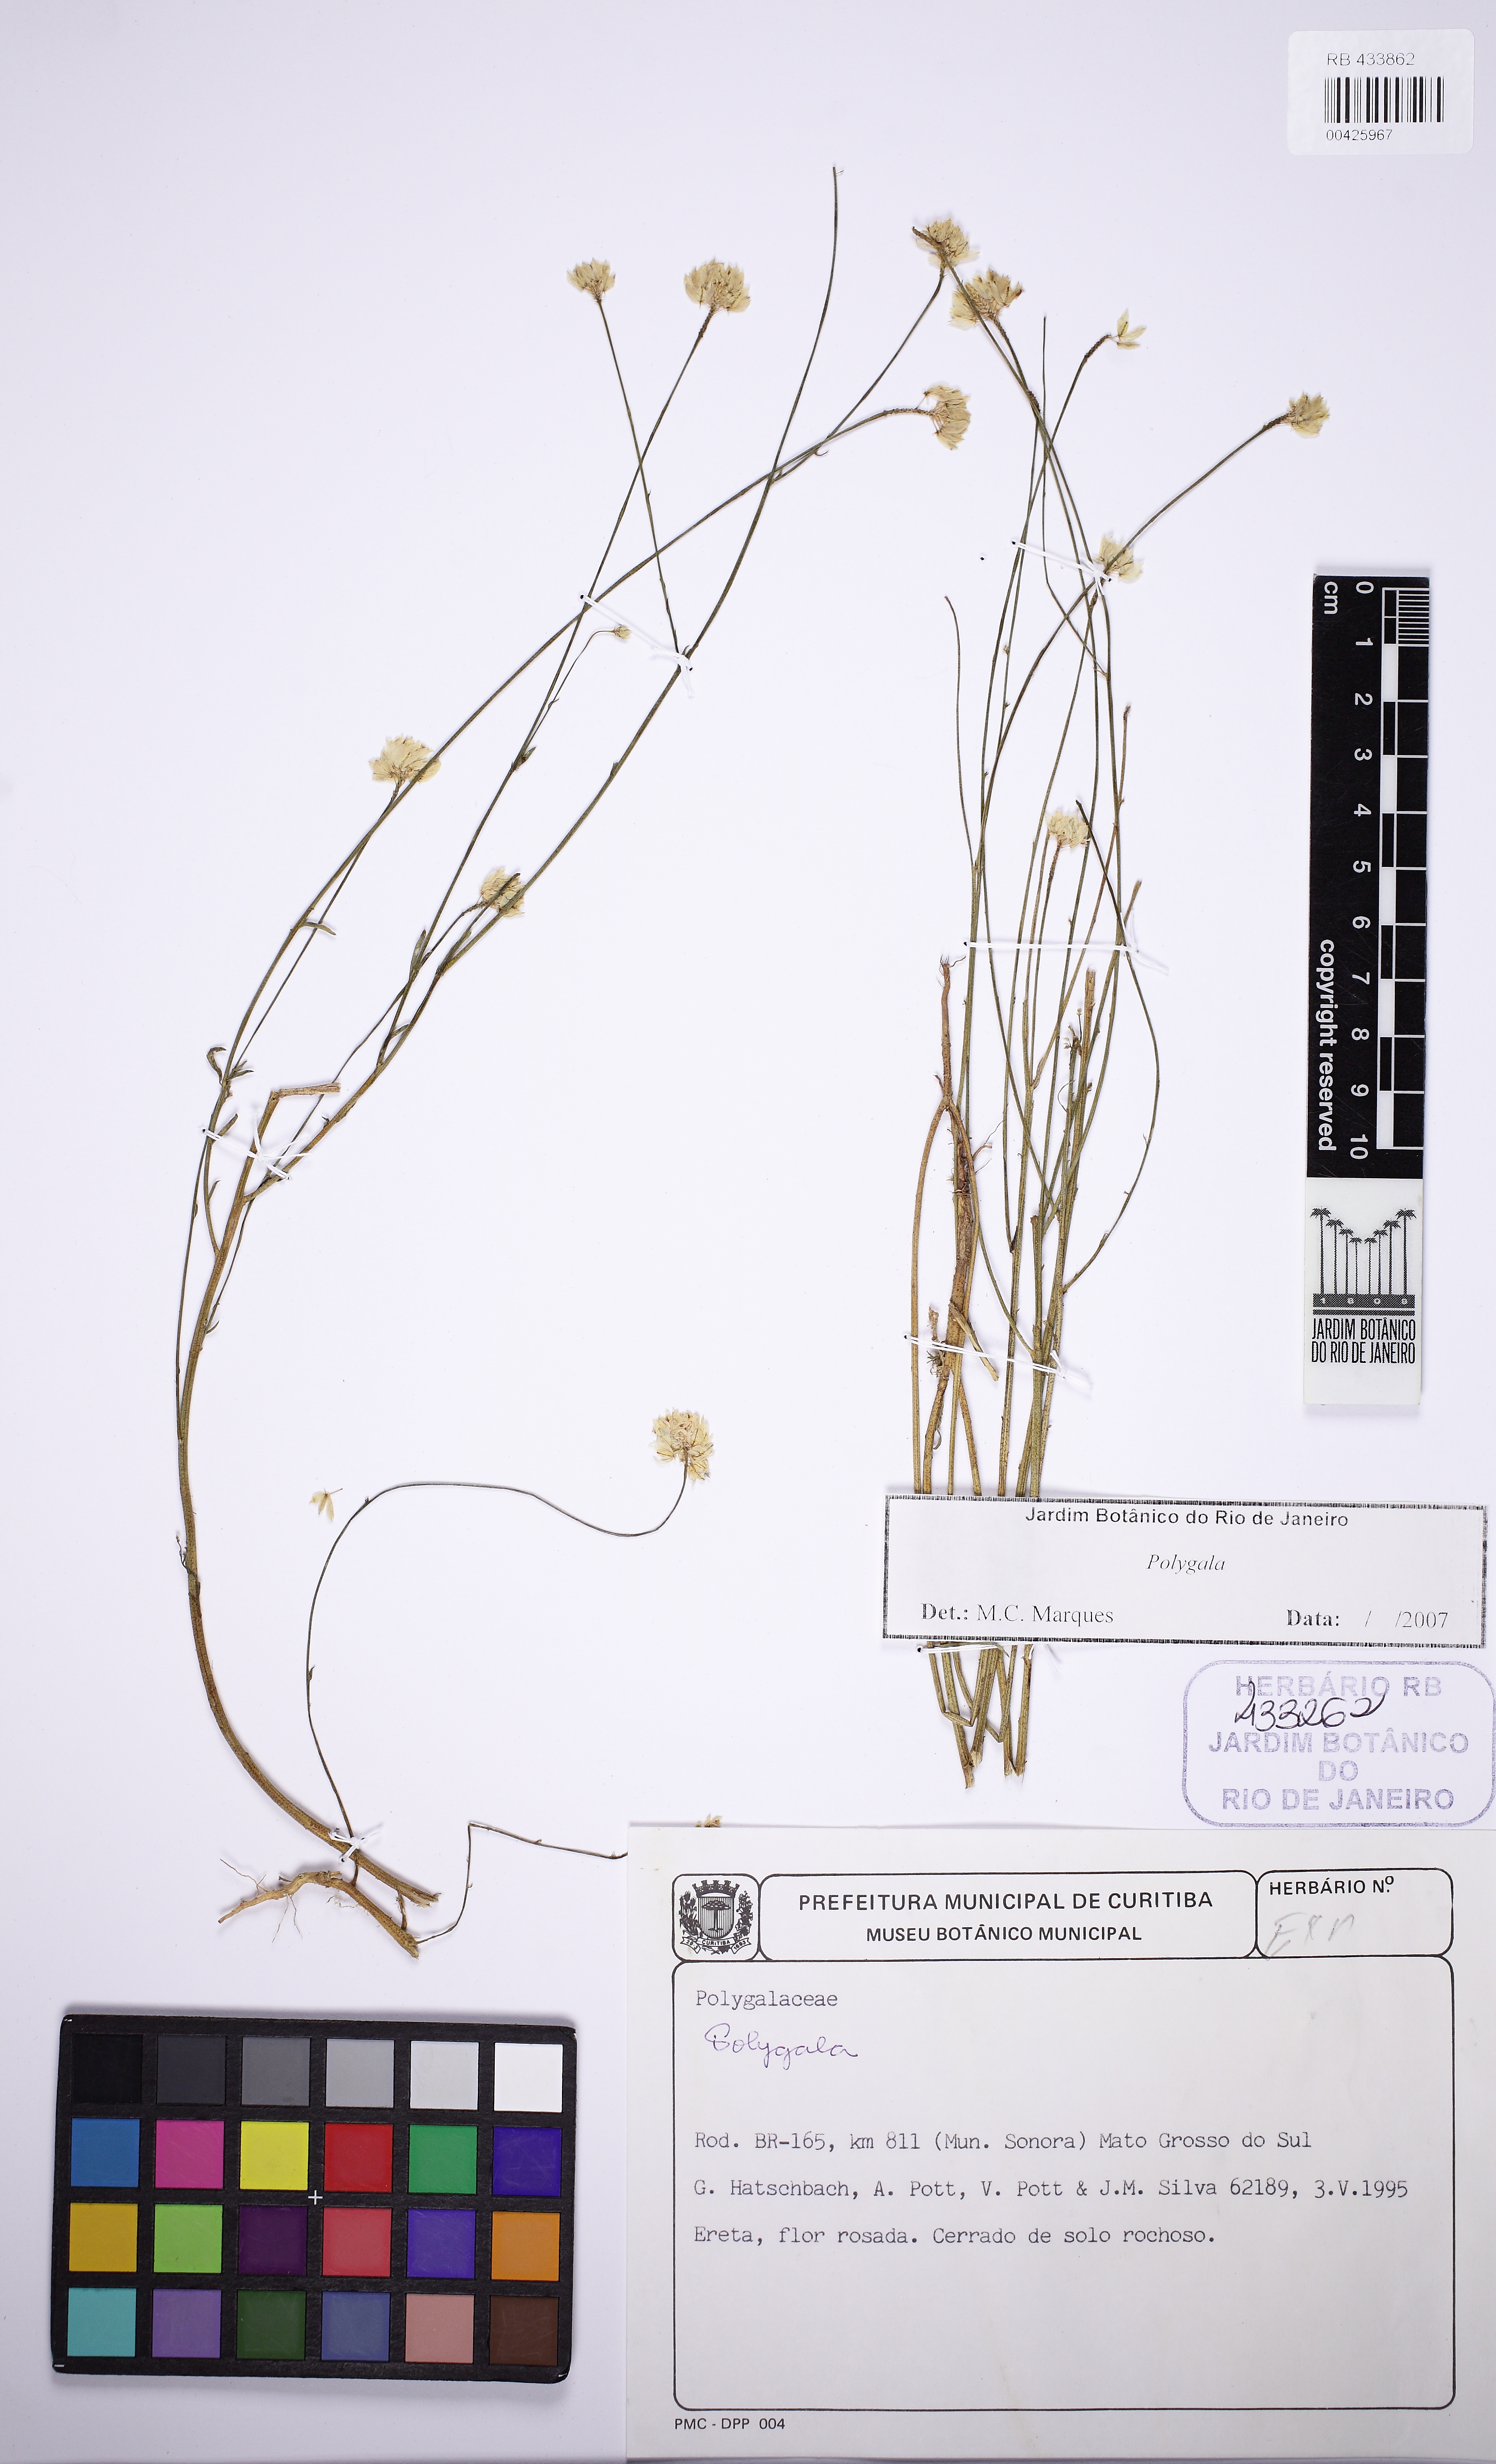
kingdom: Plantae
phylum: Tracheophyta
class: Magnoliopsida
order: Fabales
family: Polygalaceae
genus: Polygala
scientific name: Polygala longicaulis
